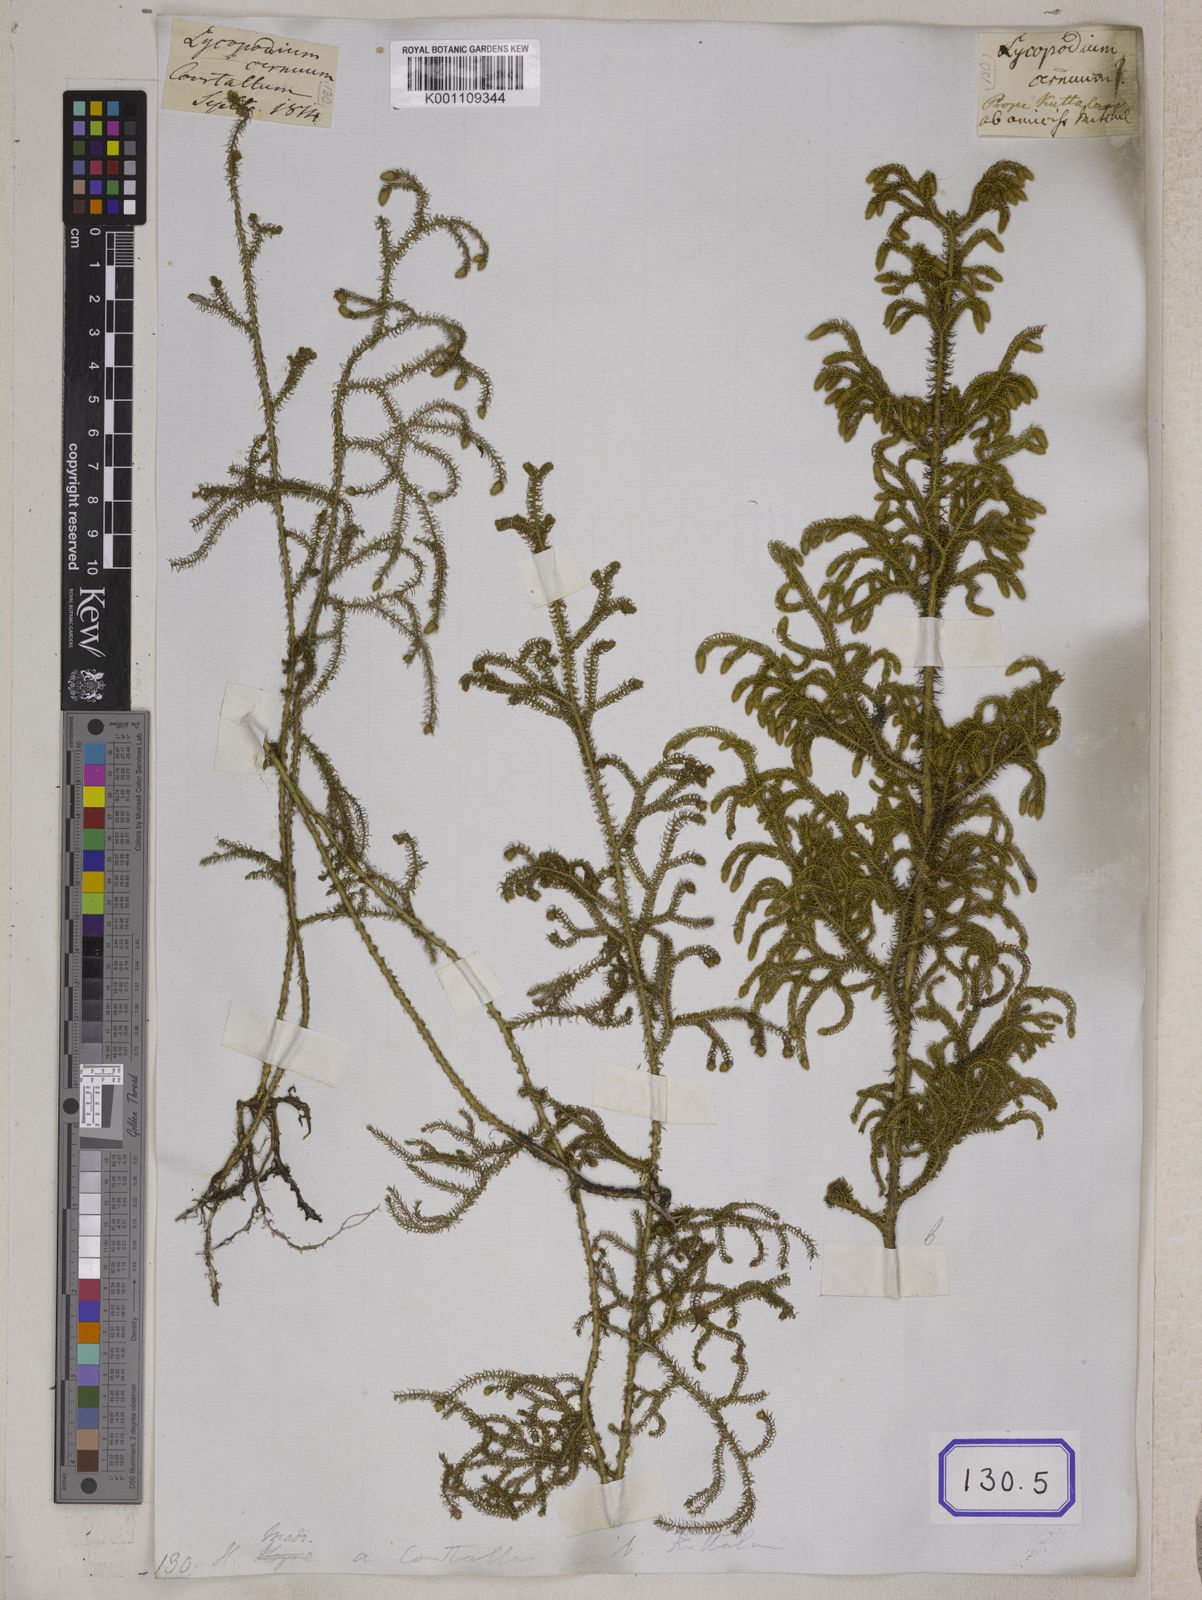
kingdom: Plantae
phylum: Tracheophyta
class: Lycopodiopsida
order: Lycopodiales
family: Lycopodiaceae
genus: Palhinhaea
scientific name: Palhinhaea cernua
